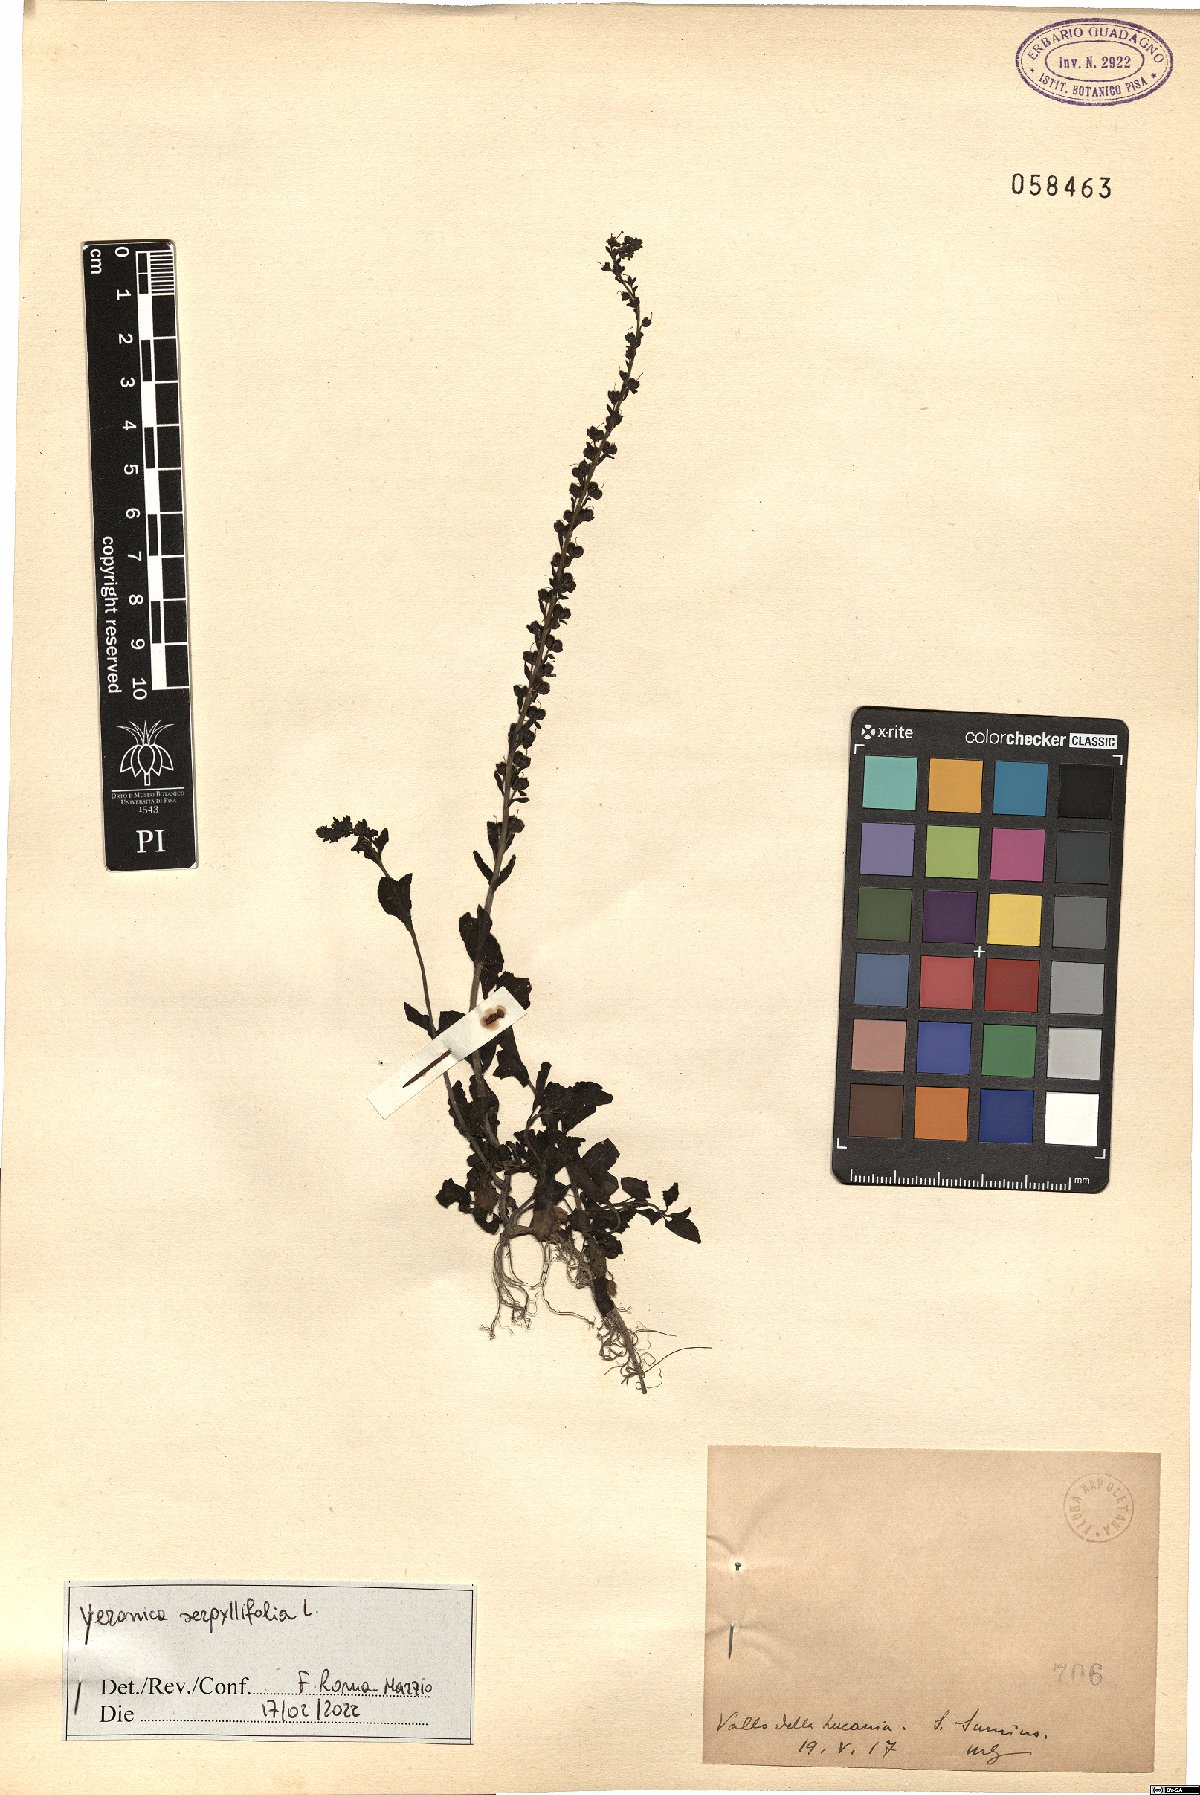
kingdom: Plantae
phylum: Tracheophyta
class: Magnoliopsida
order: Lamiales
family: Plantaginaceae
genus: Veronica
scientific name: Veronica serpyllifolia
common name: Thyme-leaved speedwell
